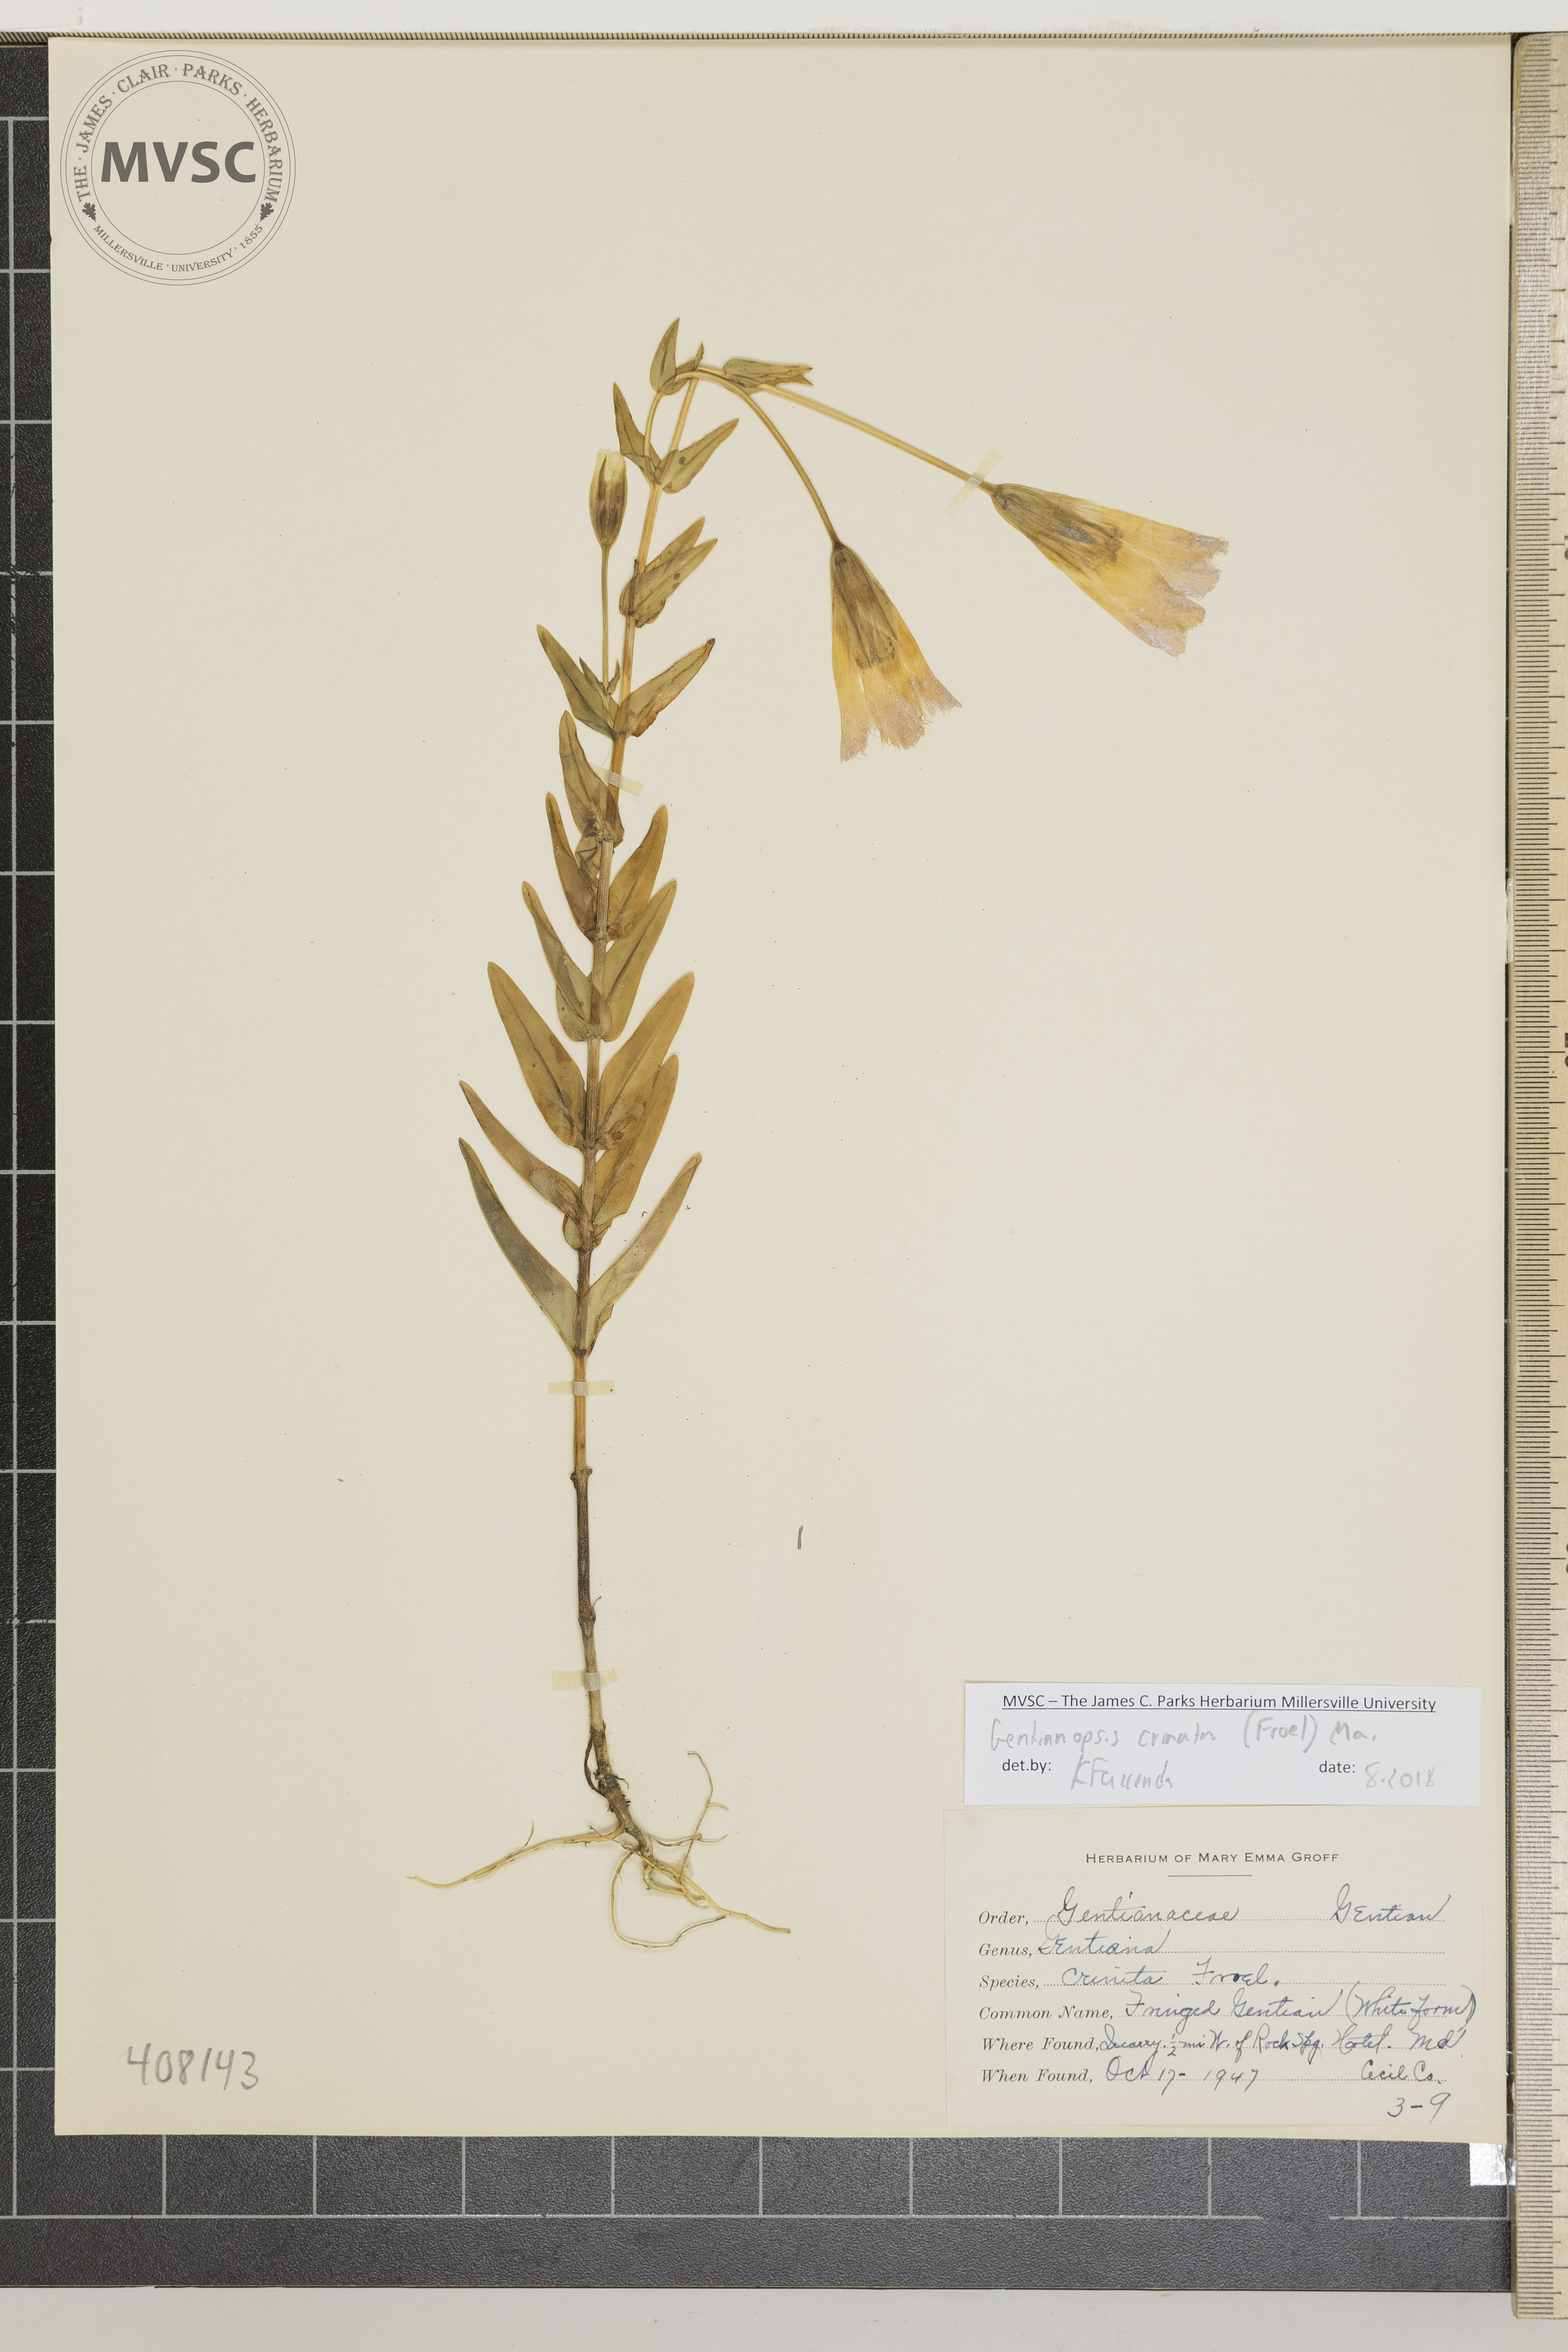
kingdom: Plantae
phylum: Tracheophyta
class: Magnoliopsida
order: Gentianales
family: Gentianaceae
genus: Gentianopsis
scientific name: Gentianopsis crinita
